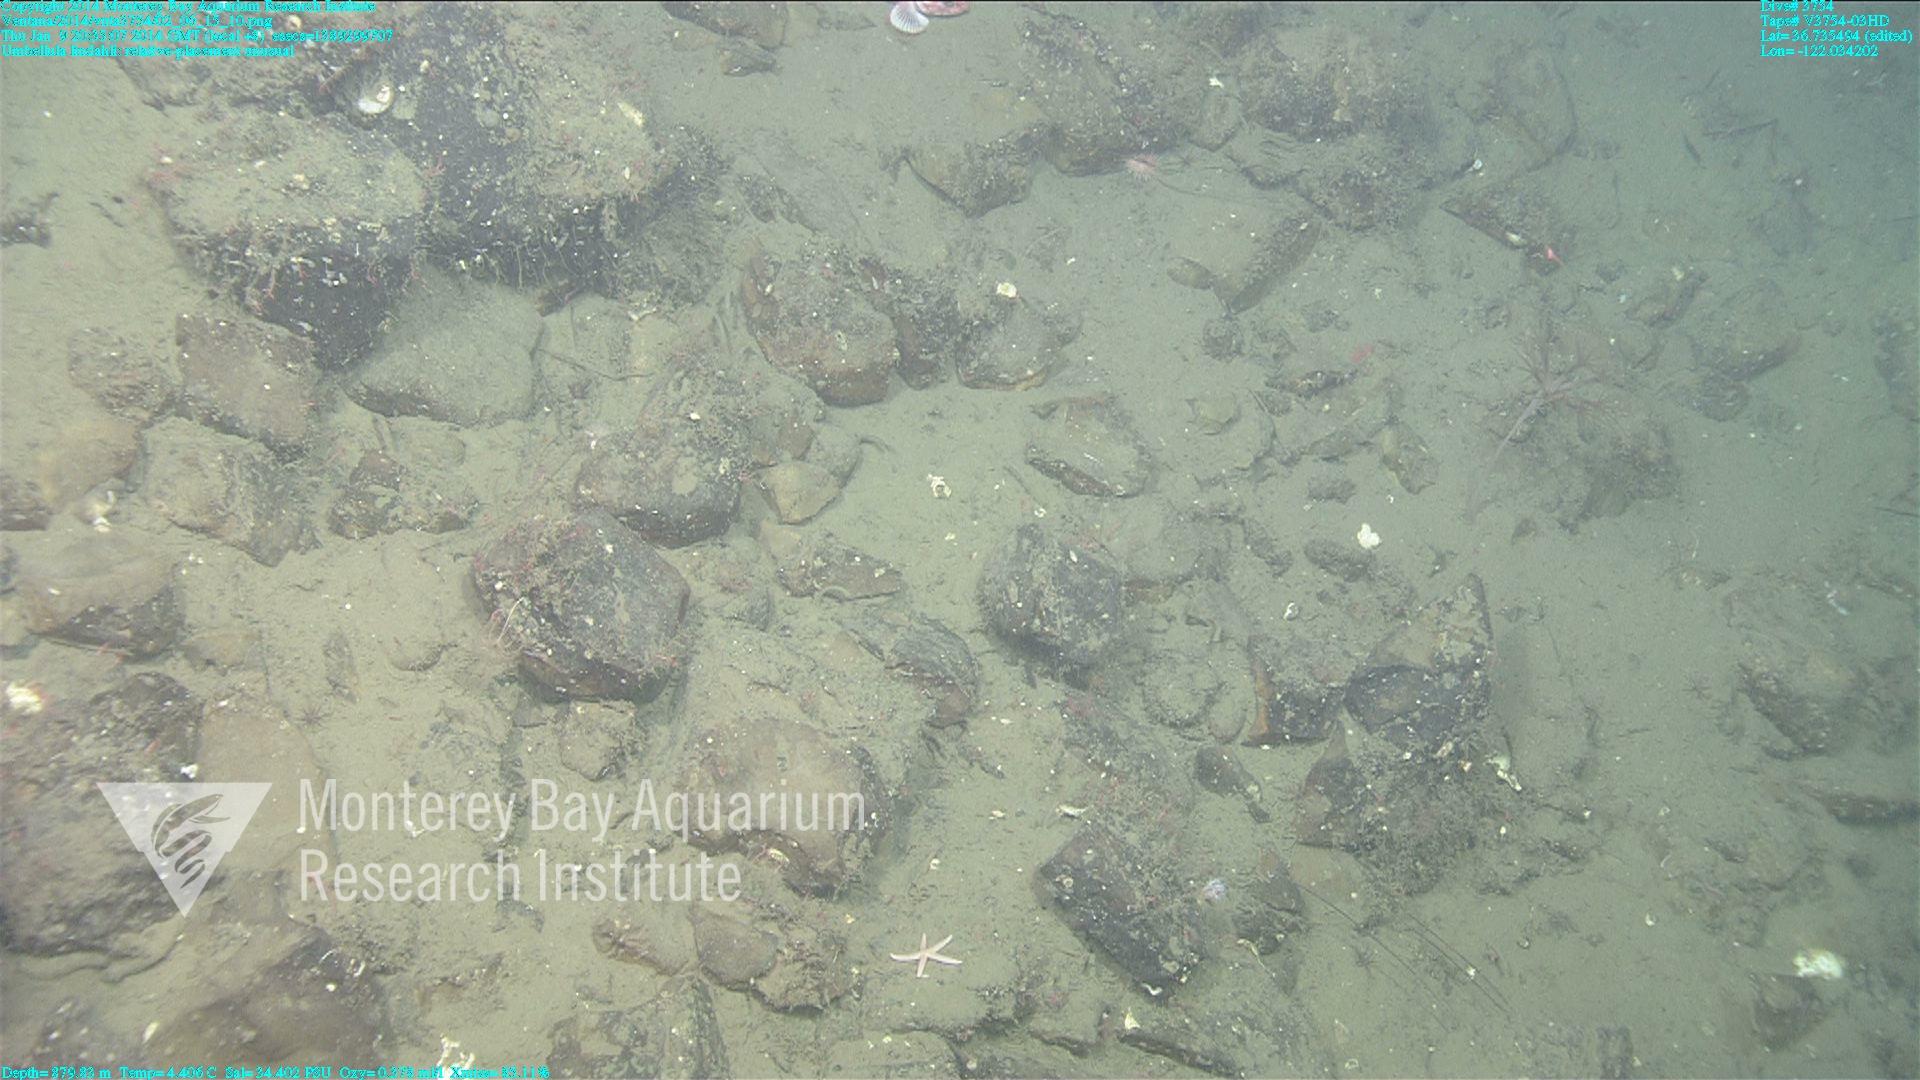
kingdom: Animalia
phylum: Cnidaria
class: Anthozoa
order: Scleralcyonacea
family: Umbellulidae
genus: Umbellula
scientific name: Umbellula lindahli
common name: Lindahl's droopy sea pen
